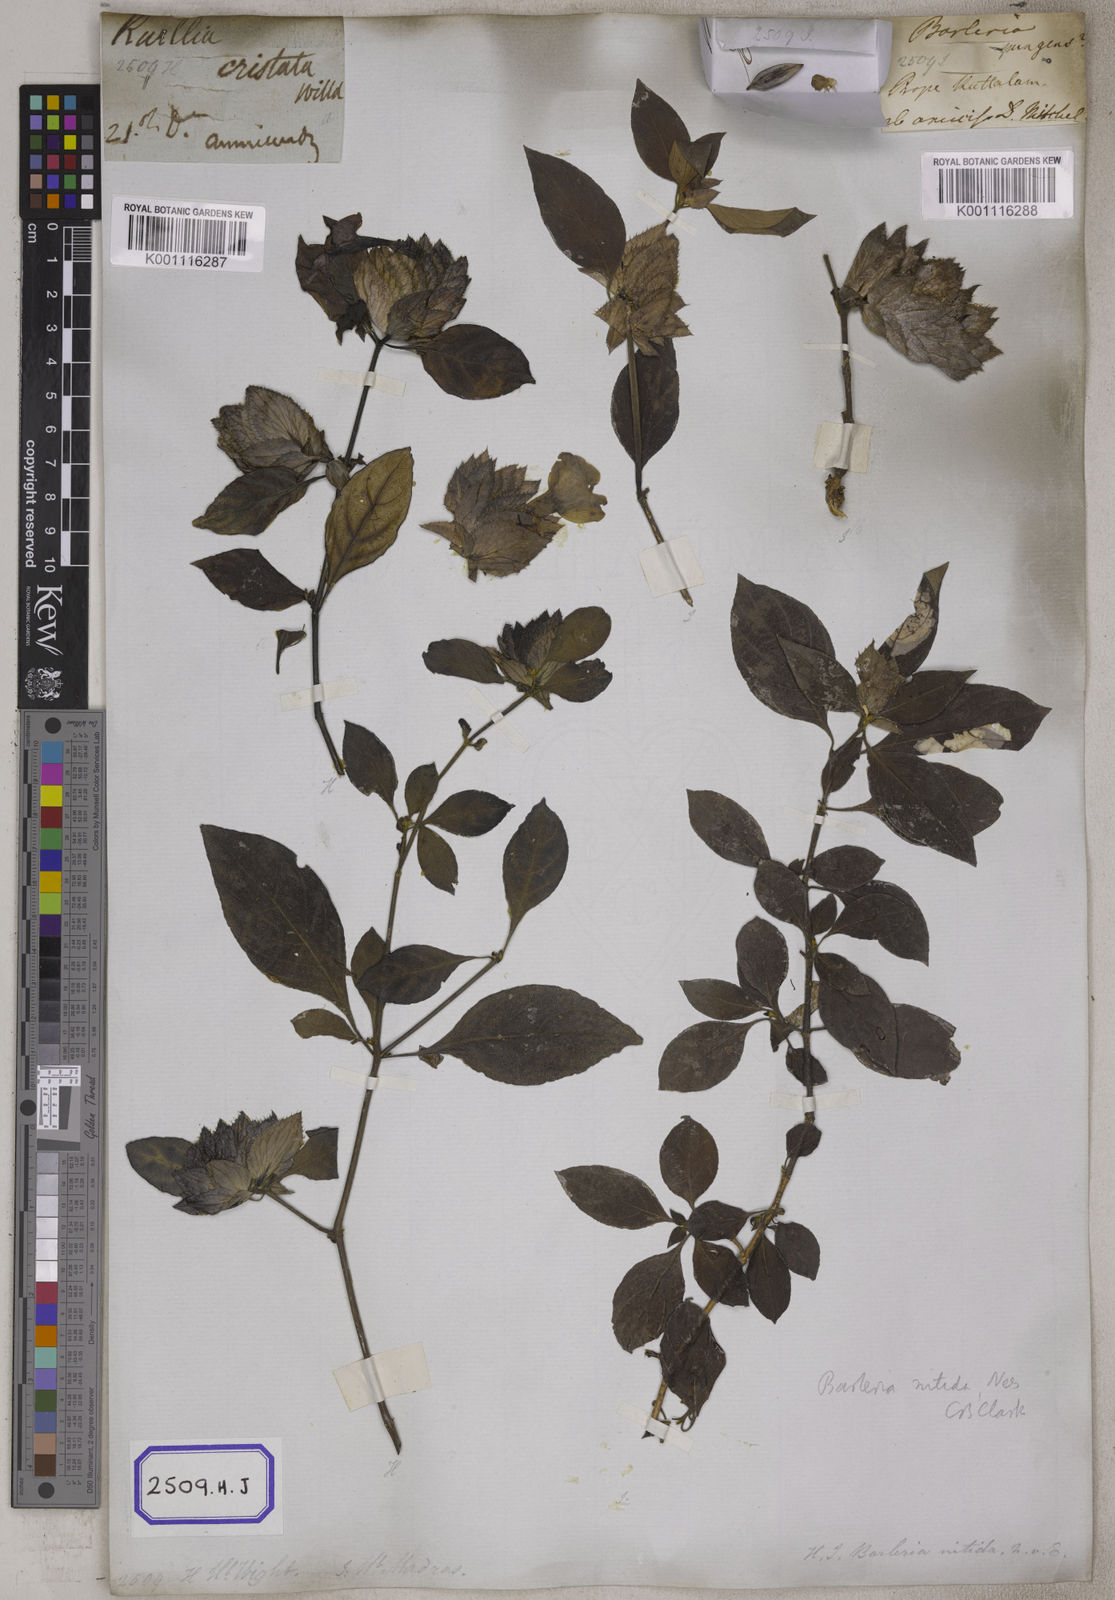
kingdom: Plantae
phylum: Tracheophyta
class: Magnoliopsida
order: Lamiales
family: Acanthaceae
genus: Barleria
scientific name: Barleria strigosa
